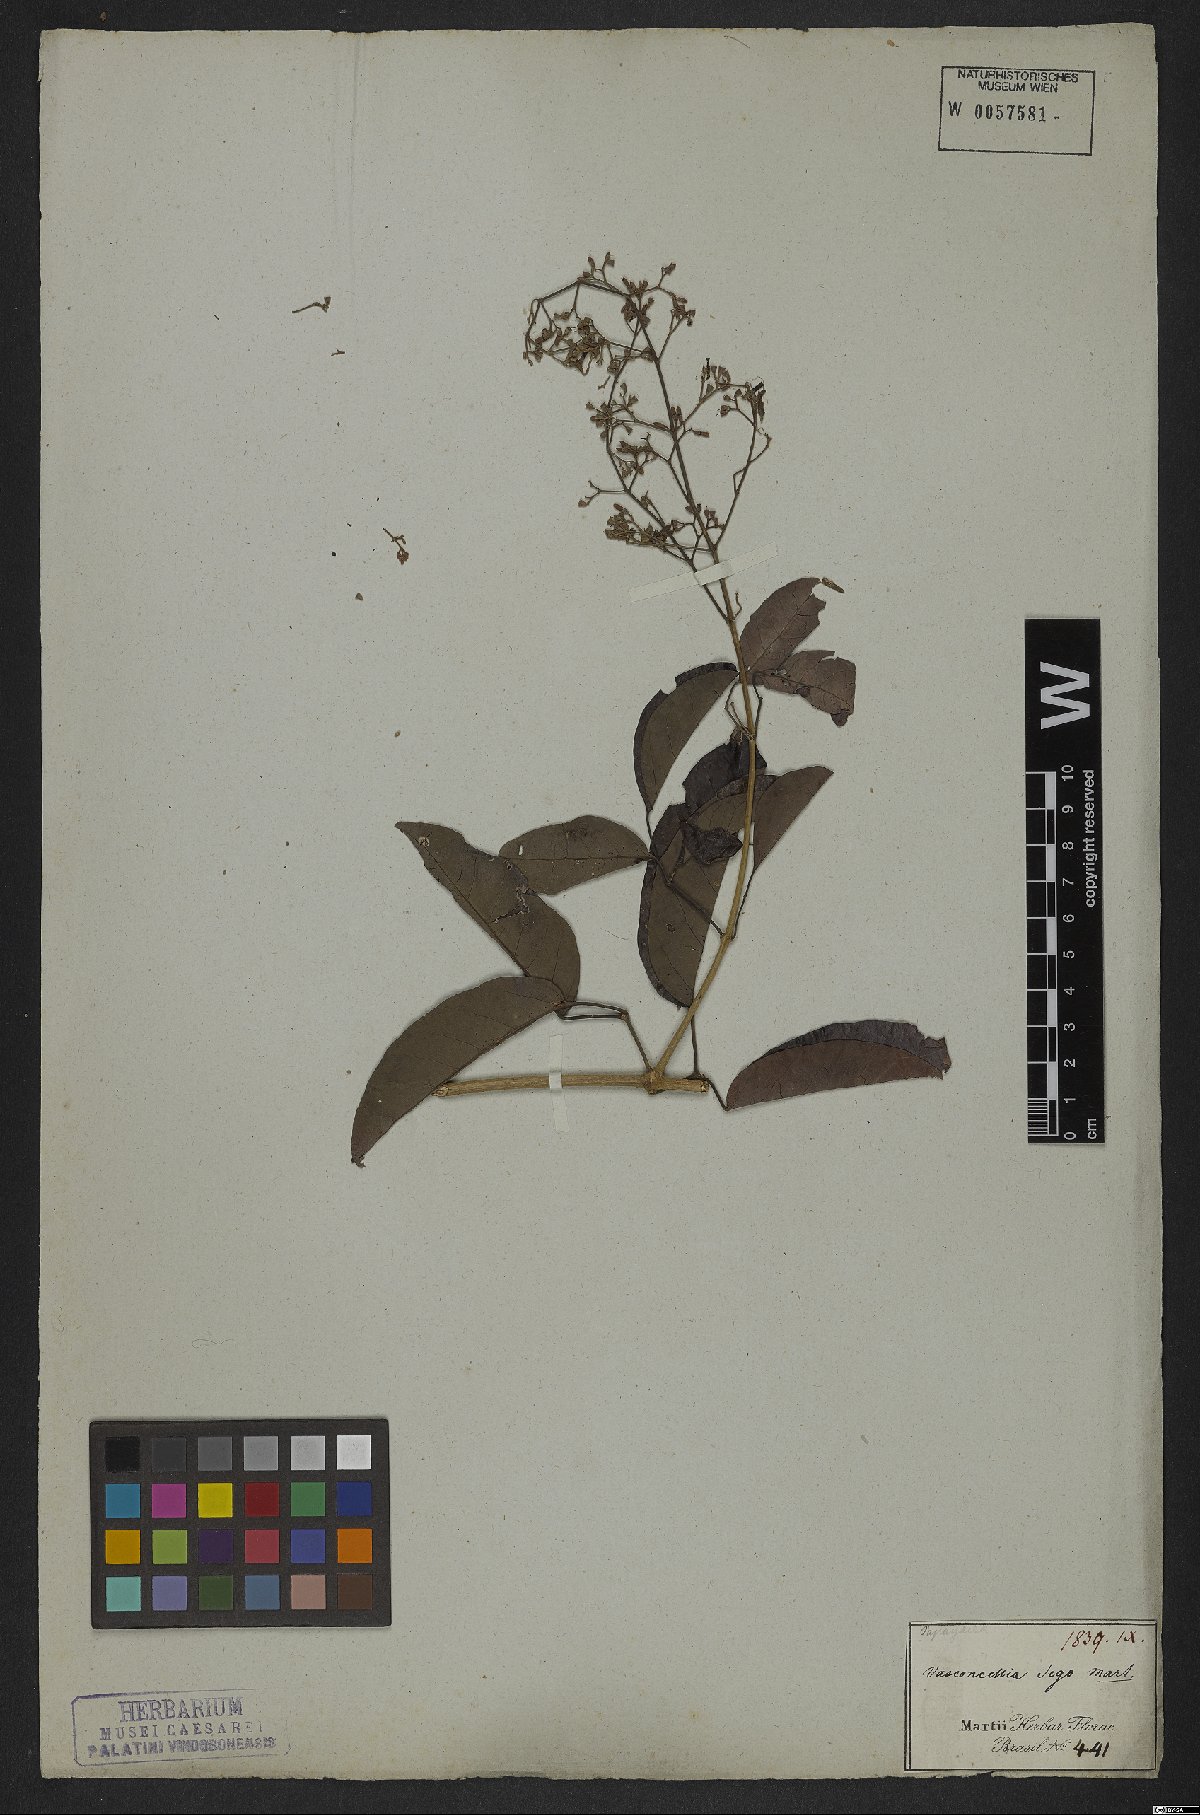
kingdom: Plantae
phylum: Tracheophyta
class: Magnoliopsida
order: Lamiales
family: Bignoniaceae
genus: Fridericia
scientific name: Fridericia rego
